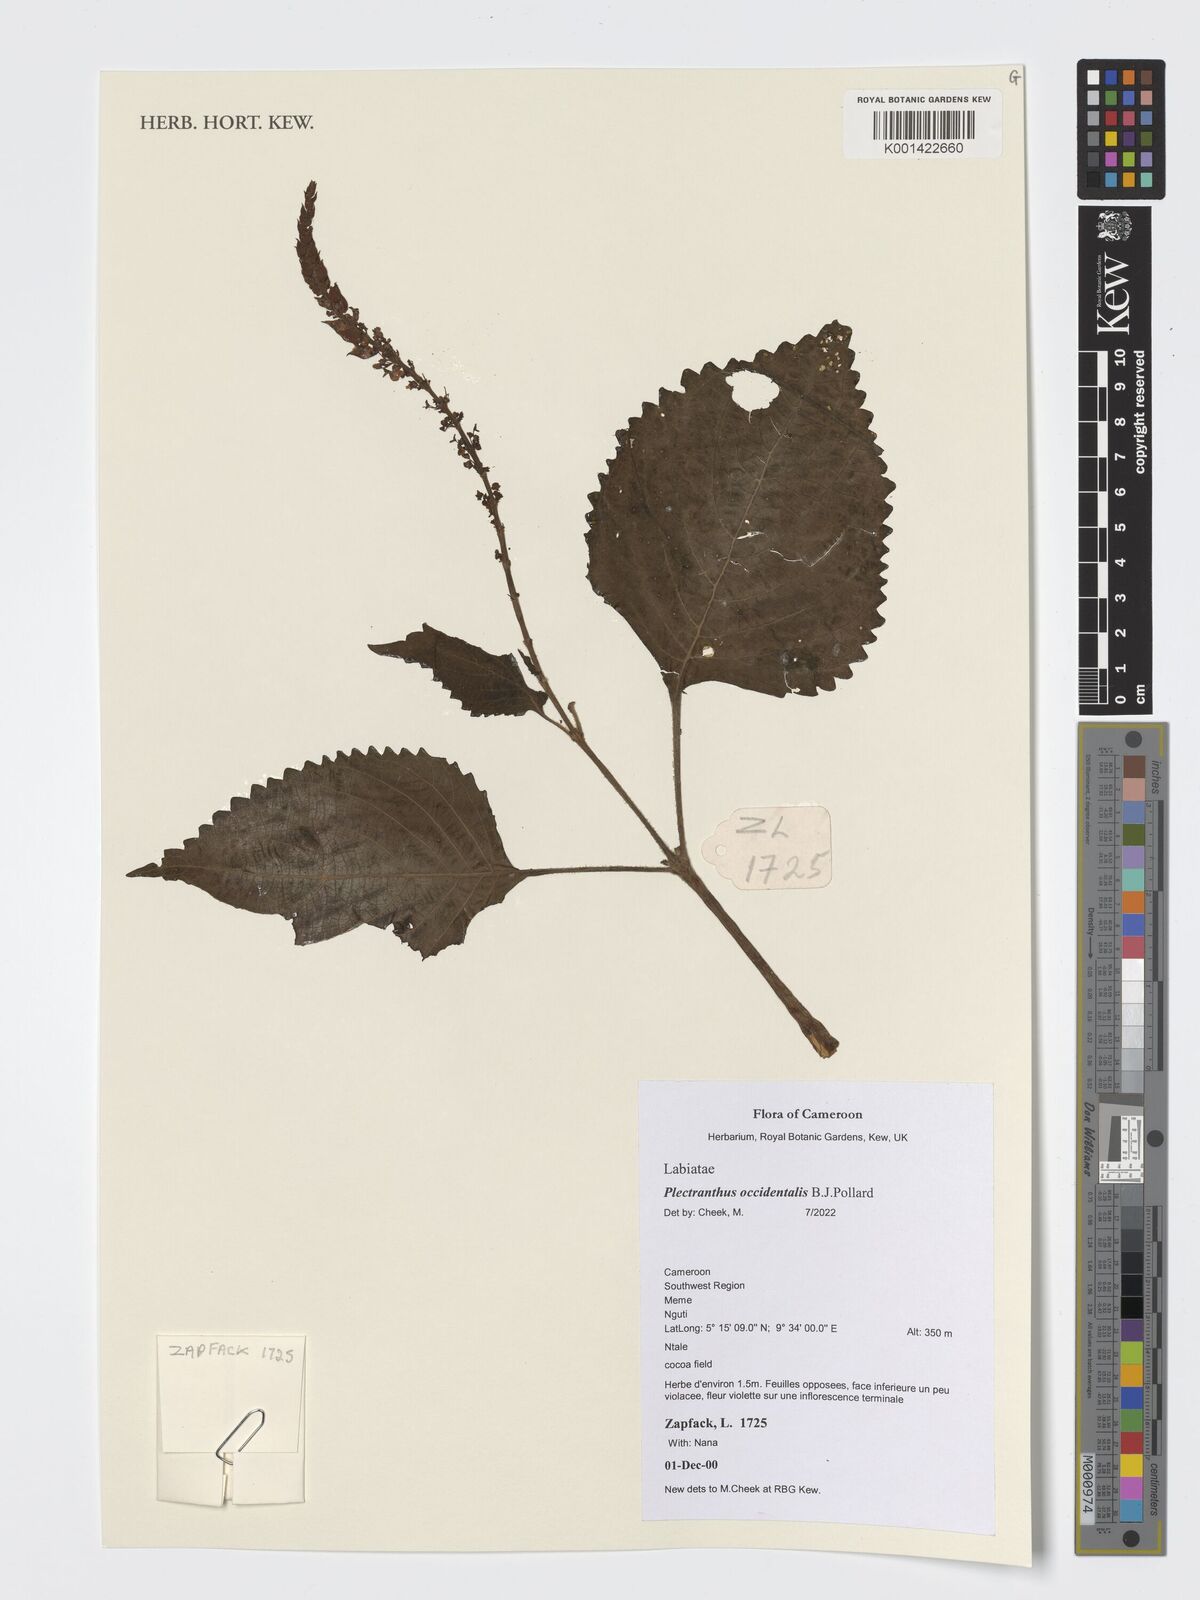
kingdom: Plantae
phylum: Tracheophyta
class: Magnoliopsida
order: Lamiales
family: Lamiaceae
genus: Coleus
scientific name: Coleus mannii
